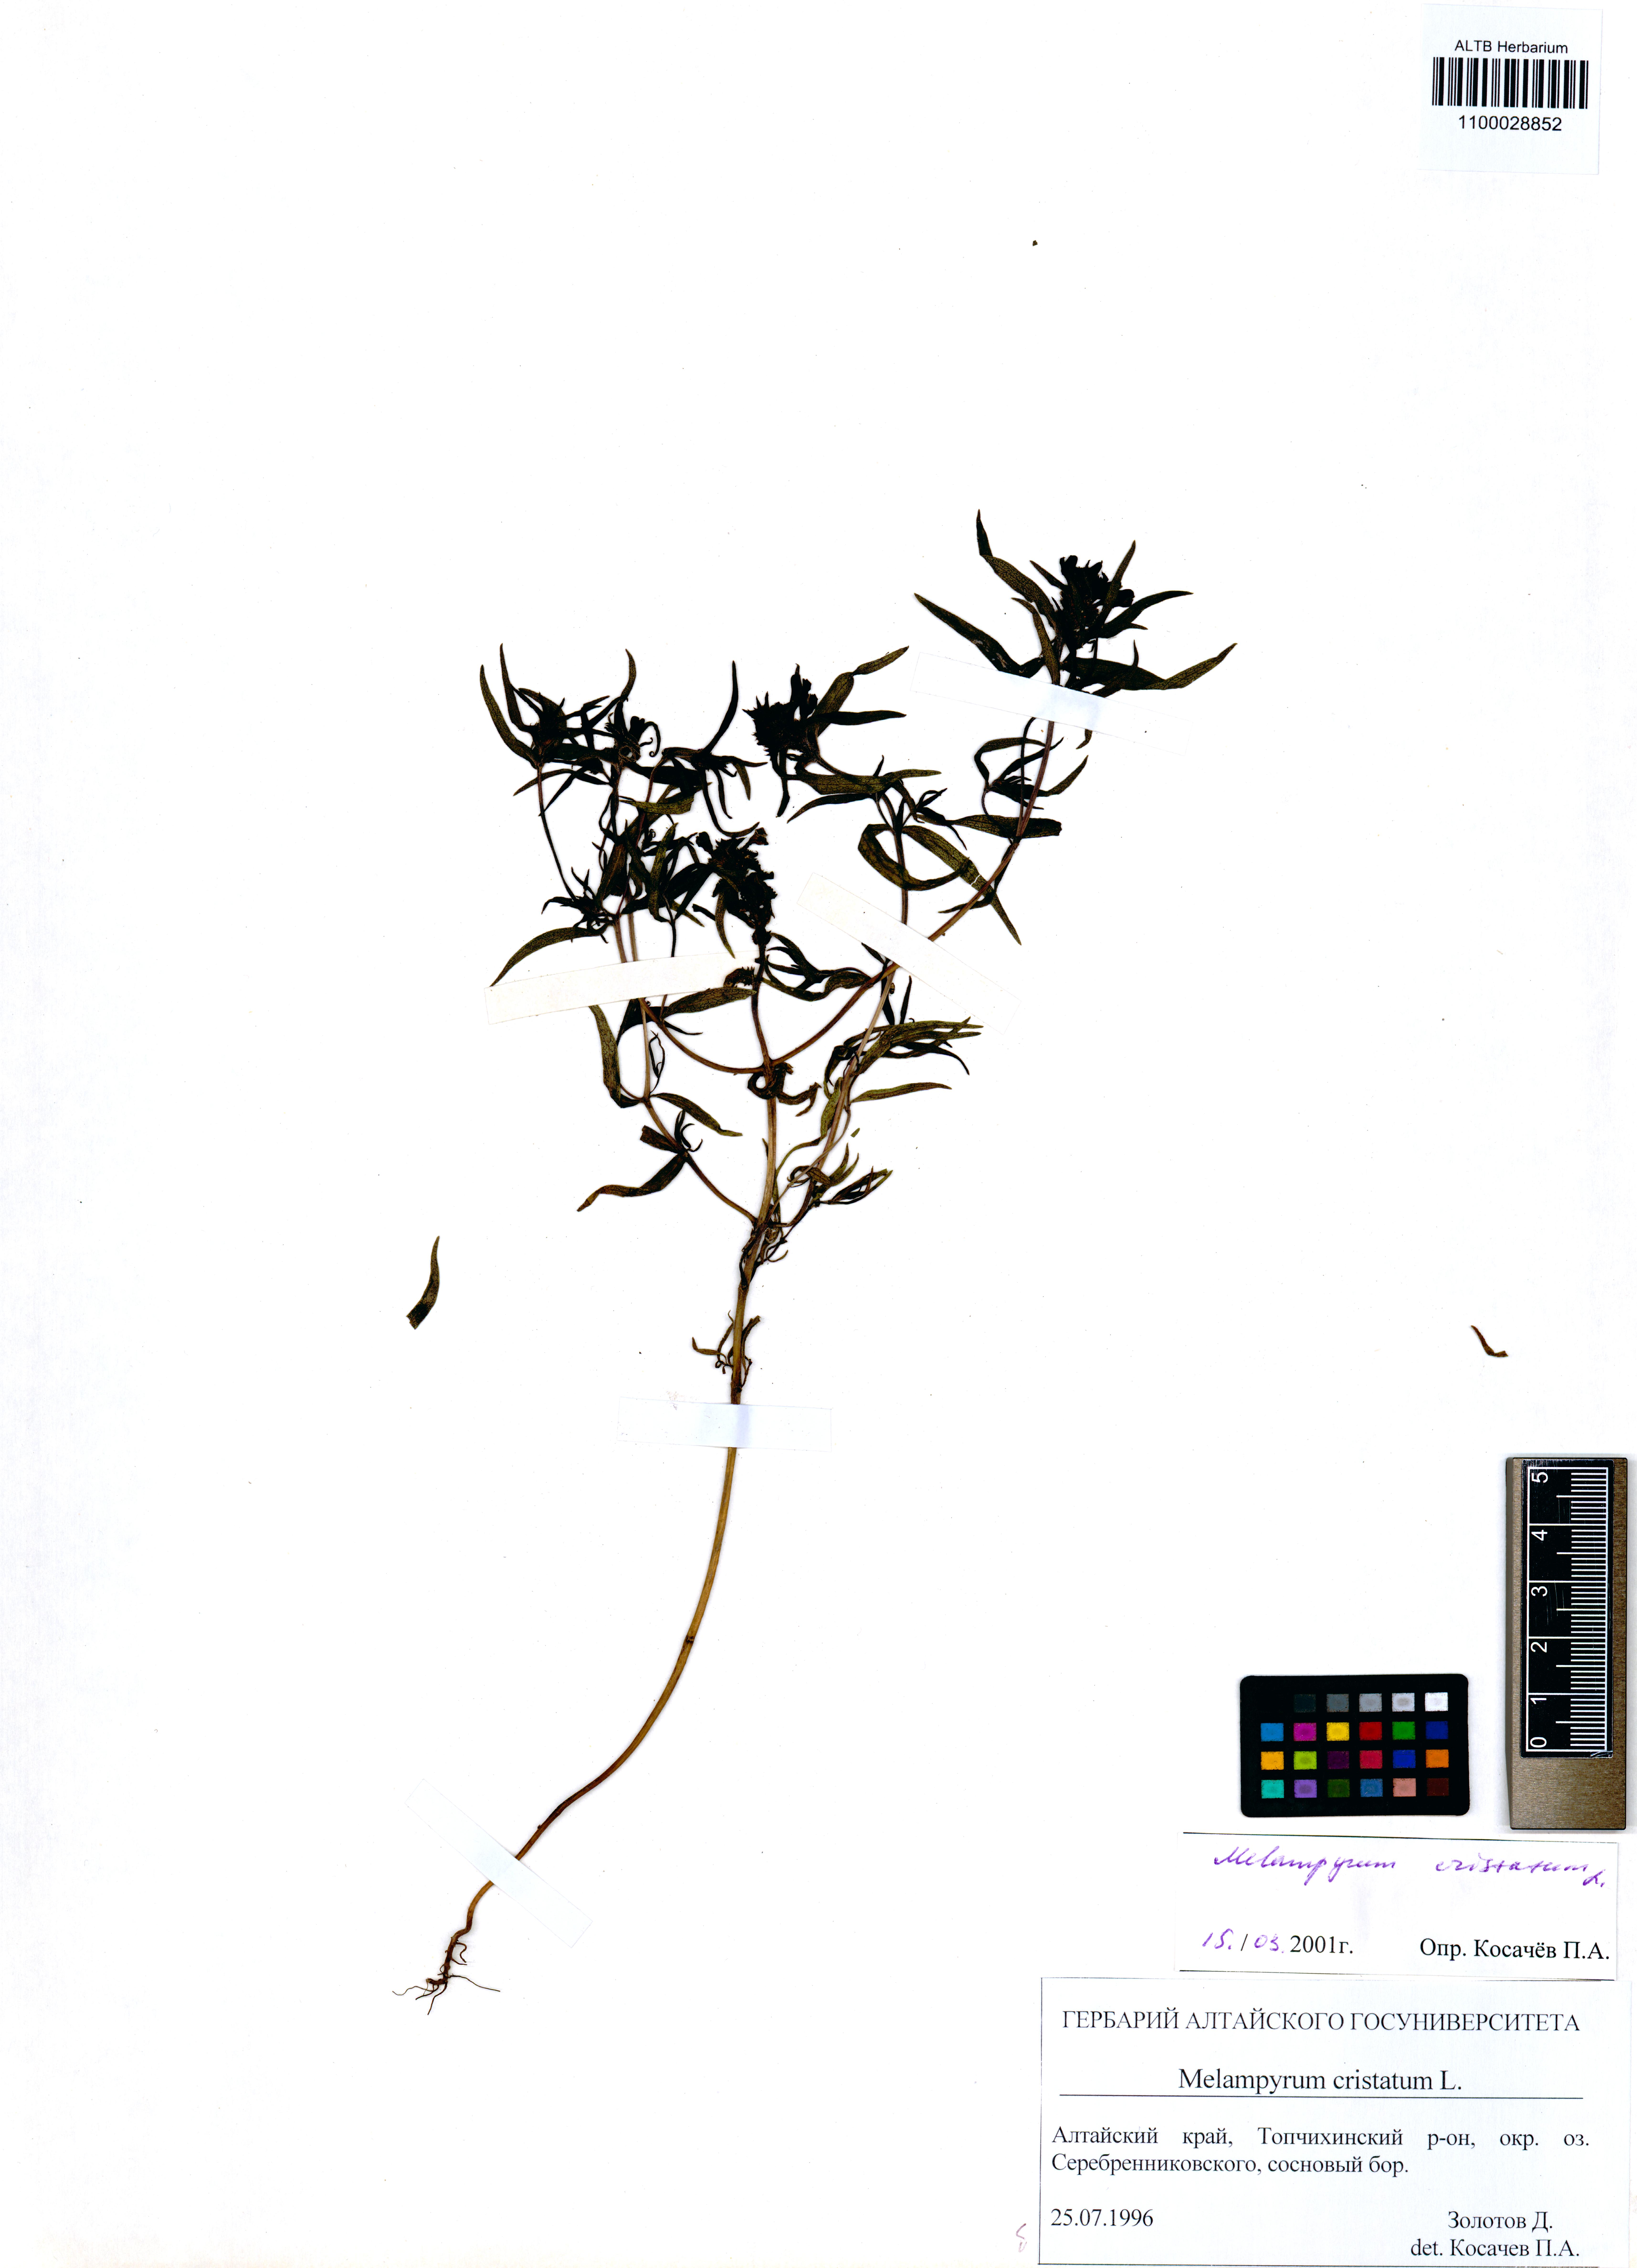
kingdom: Plantae
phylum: Tracheophyta
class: Magnoliopsida
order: Lamiales
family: Orobanchaceae
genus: Melampyrum
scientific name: Melampyrum cristatum
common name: Crested cow-wheat
